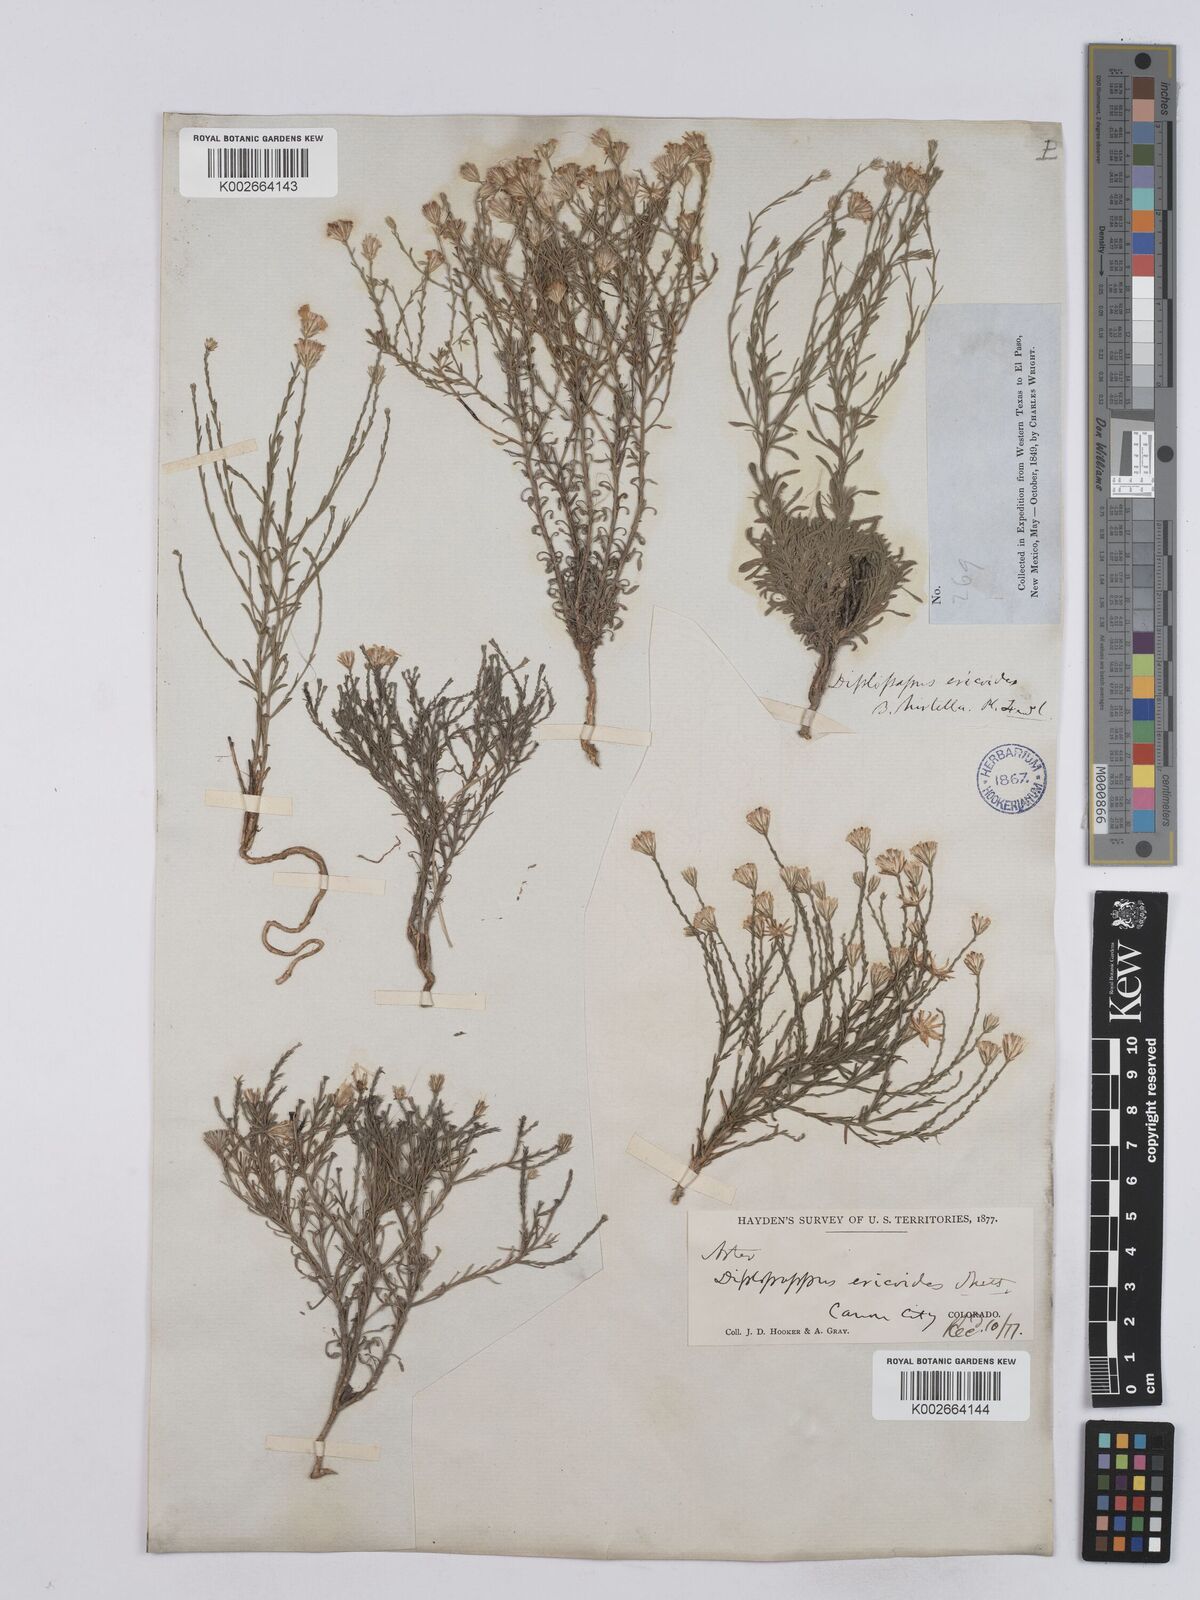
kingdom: Plantae
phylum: Tracheophyta
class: Magnoliopsida
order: Asterales
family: Asteraceae
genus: Chaetopappa
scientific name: Chaetopappa ericoides
